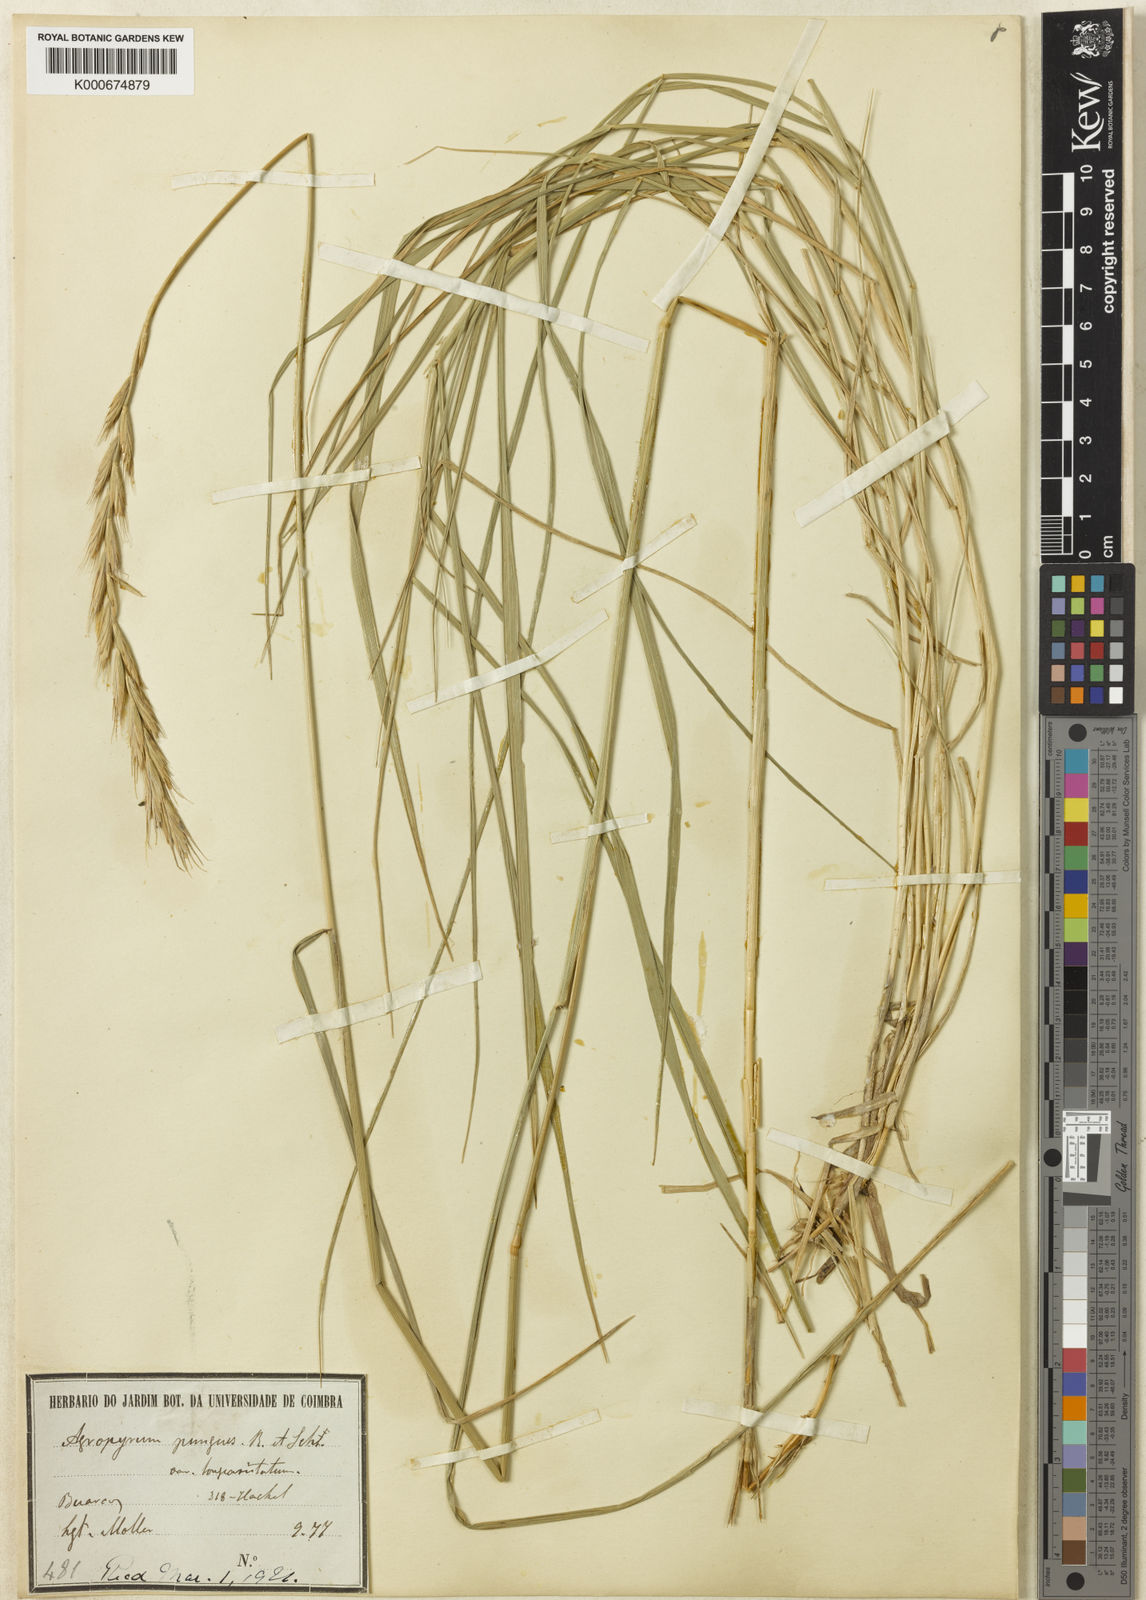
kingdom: Plantae
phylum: Tracheophyta
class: Liliopsida
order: Poales
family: Poaceae
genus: Thinopyrum
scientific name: Thinopyrum acutum
